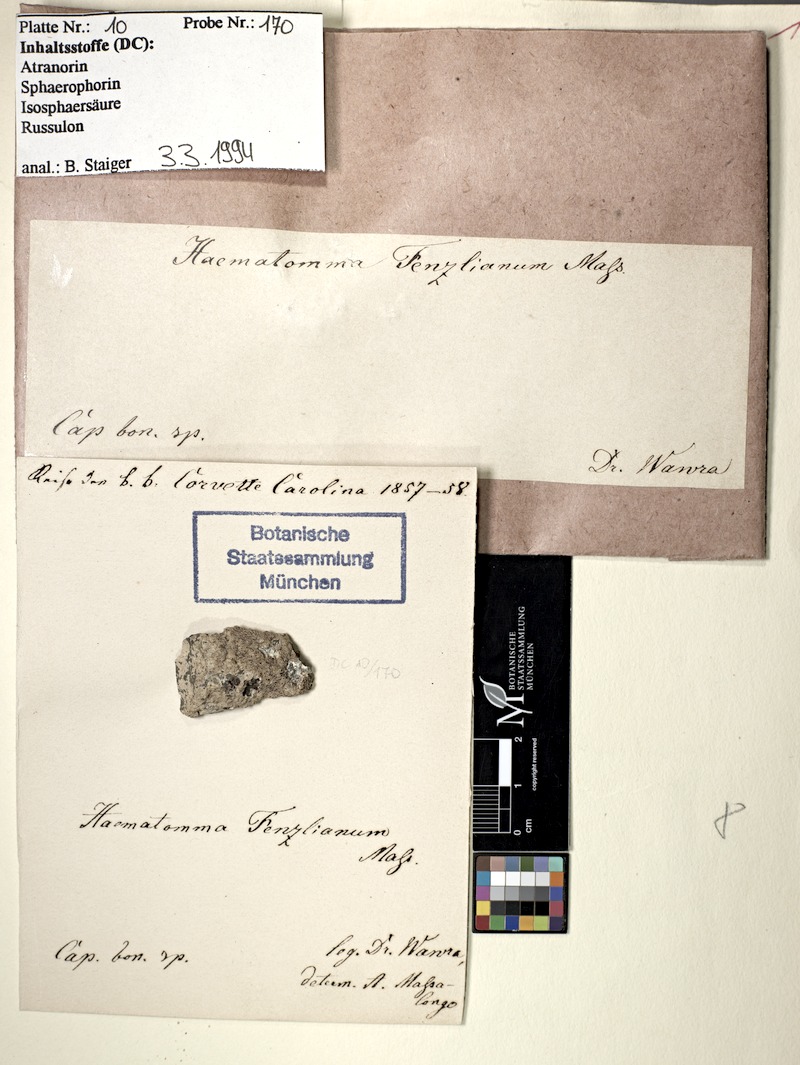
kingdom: Fungi
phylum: Ascomycota
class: Lecanoromycetes
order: Lecanorales
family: Haematommataceae
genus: Haematomma
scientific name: Haematomma fenzlianum
